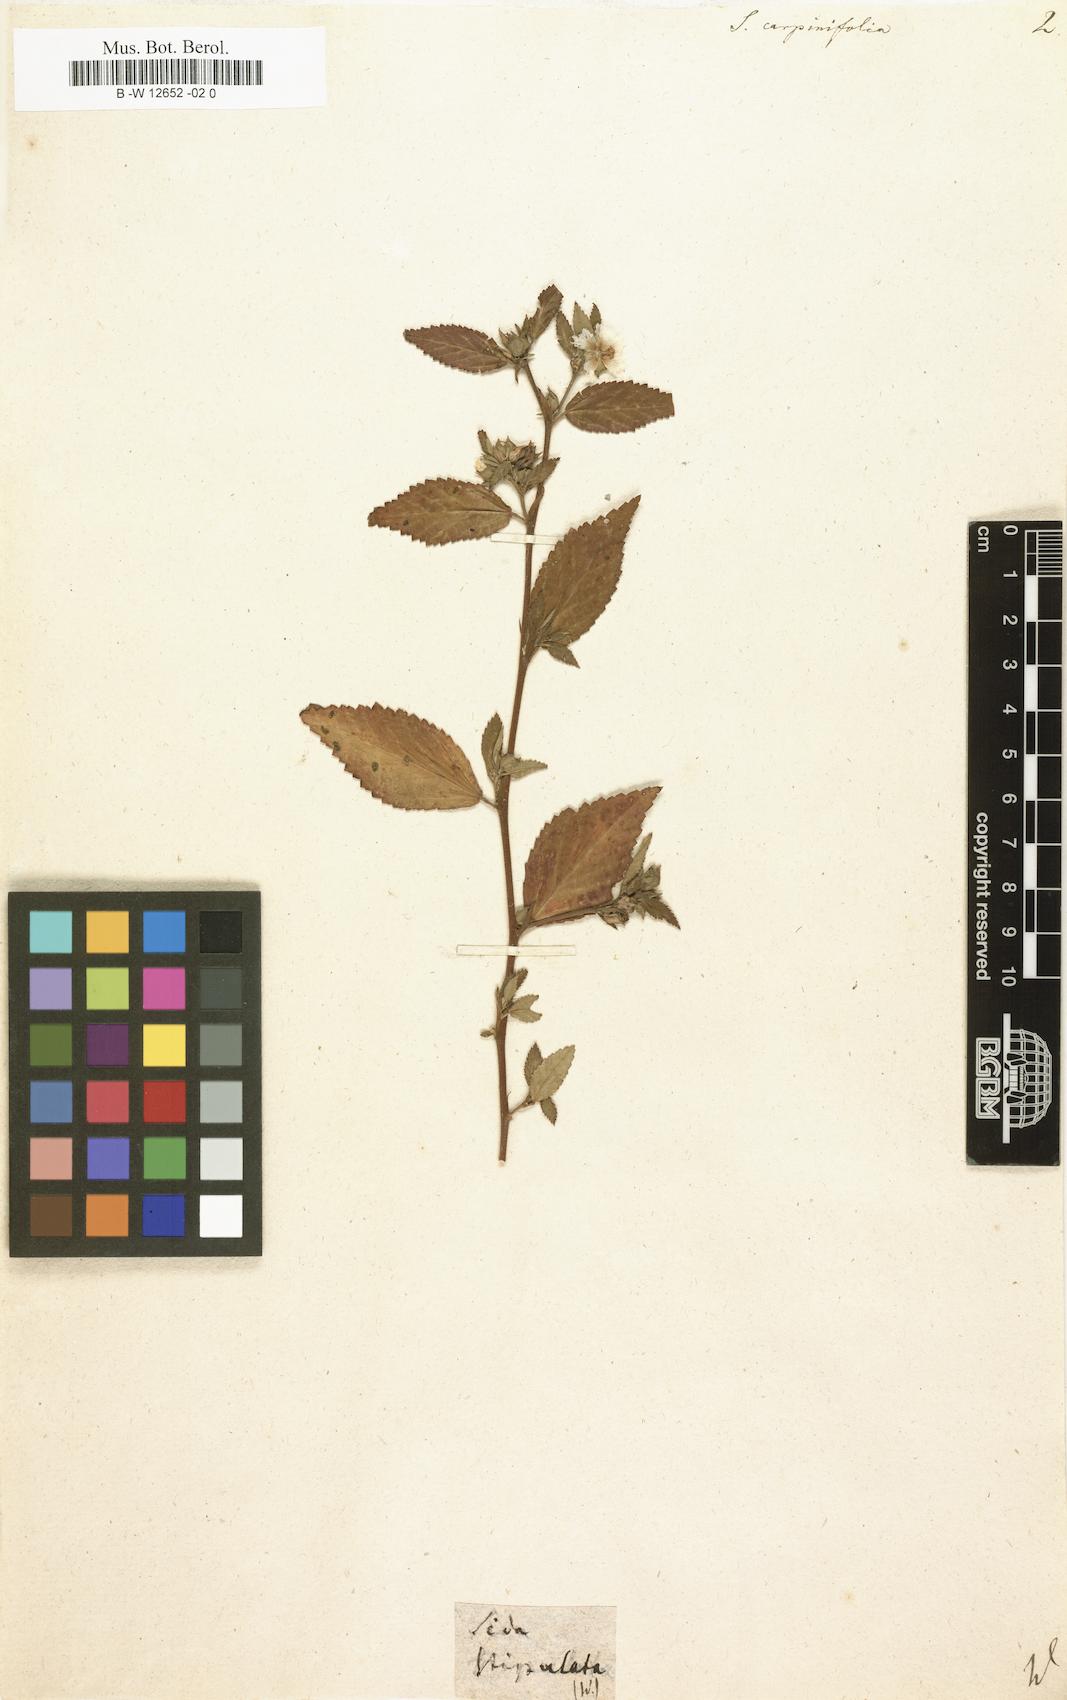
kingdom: Plantae
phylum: Tracheophyta
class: Magnoliopsida
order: Malvales
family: Malvaceae
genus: Sida
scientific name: Sida
